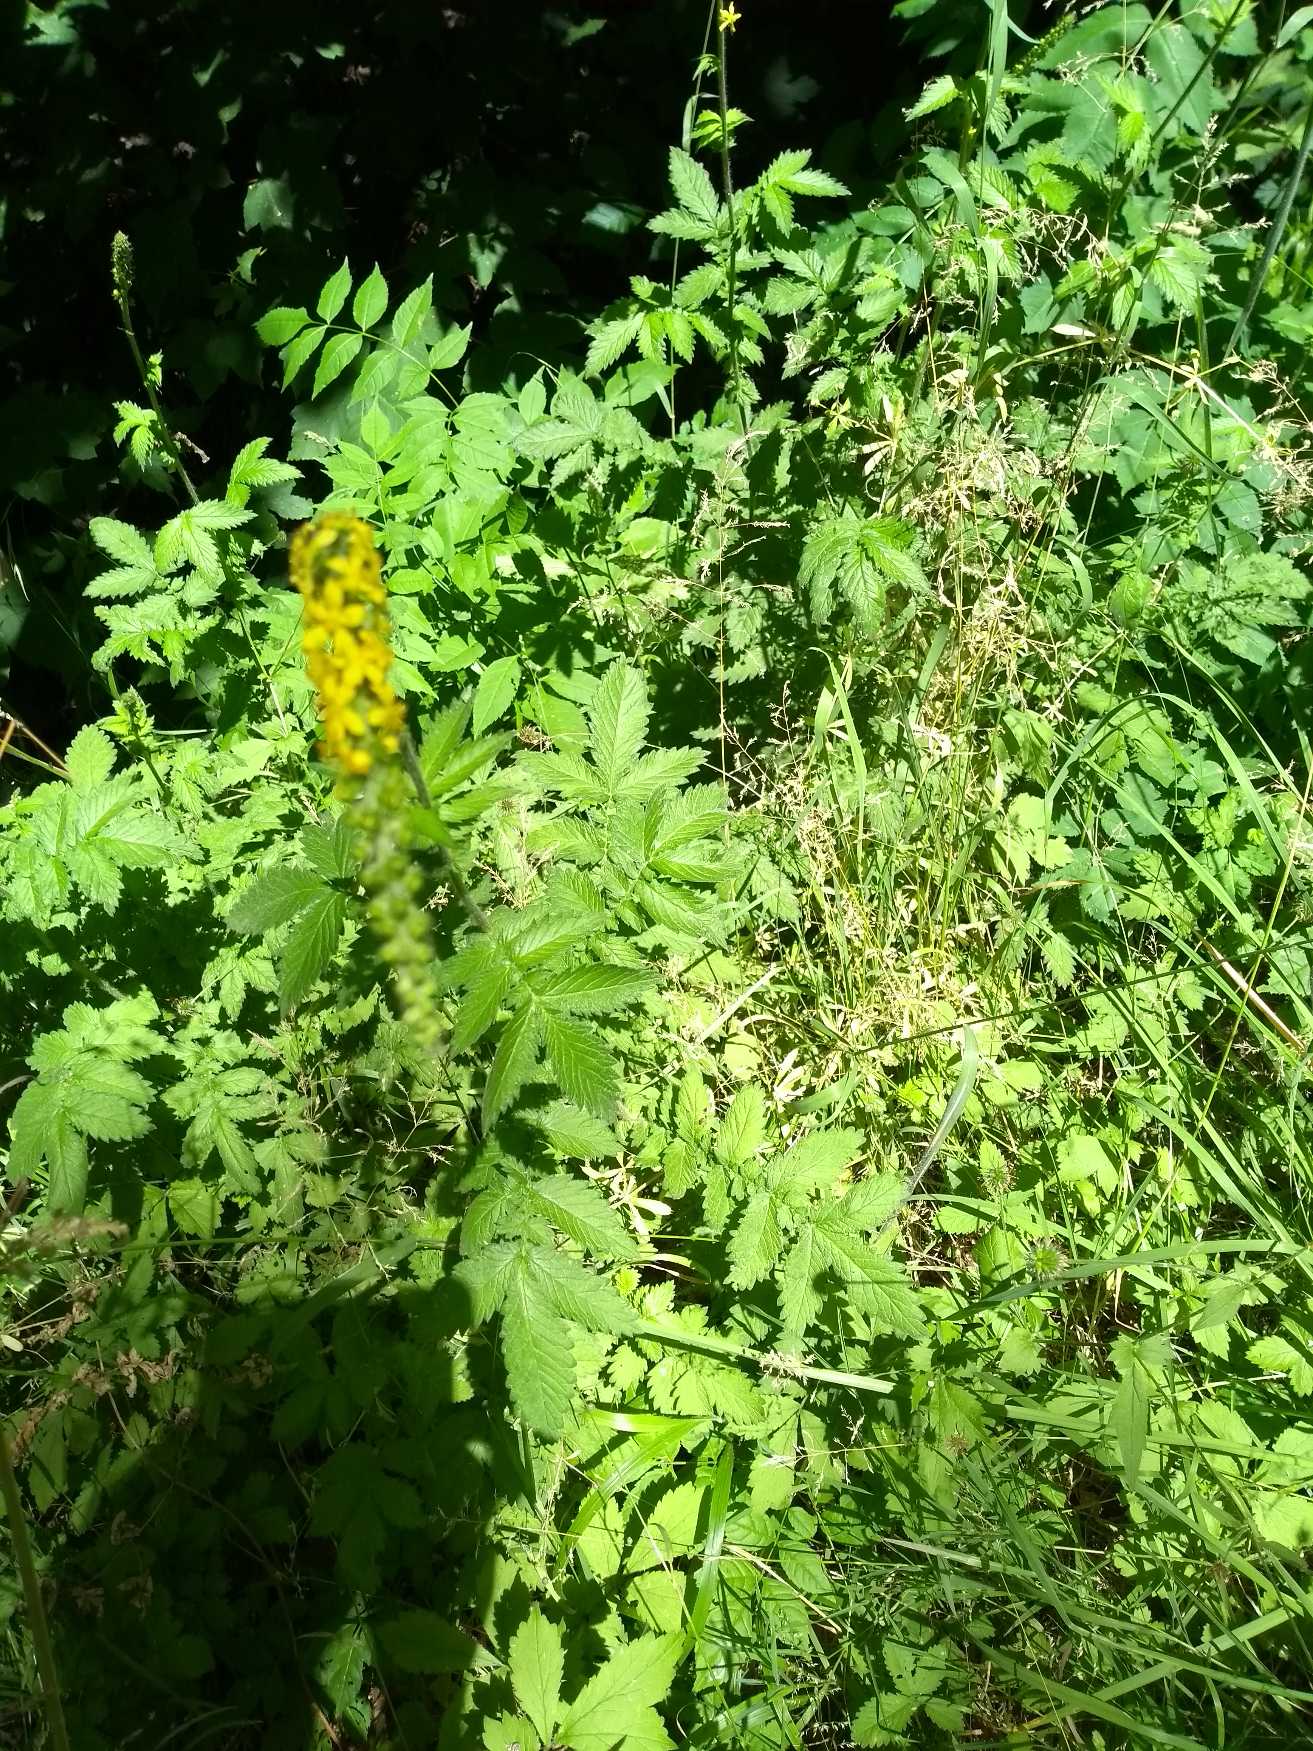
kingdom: Plantae
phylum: Tracheophyta
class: Magnoliopsida
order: Rosales
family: Rosaceae
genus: Agrimonia
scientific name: Agrimonia
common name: Agermåneslægten
